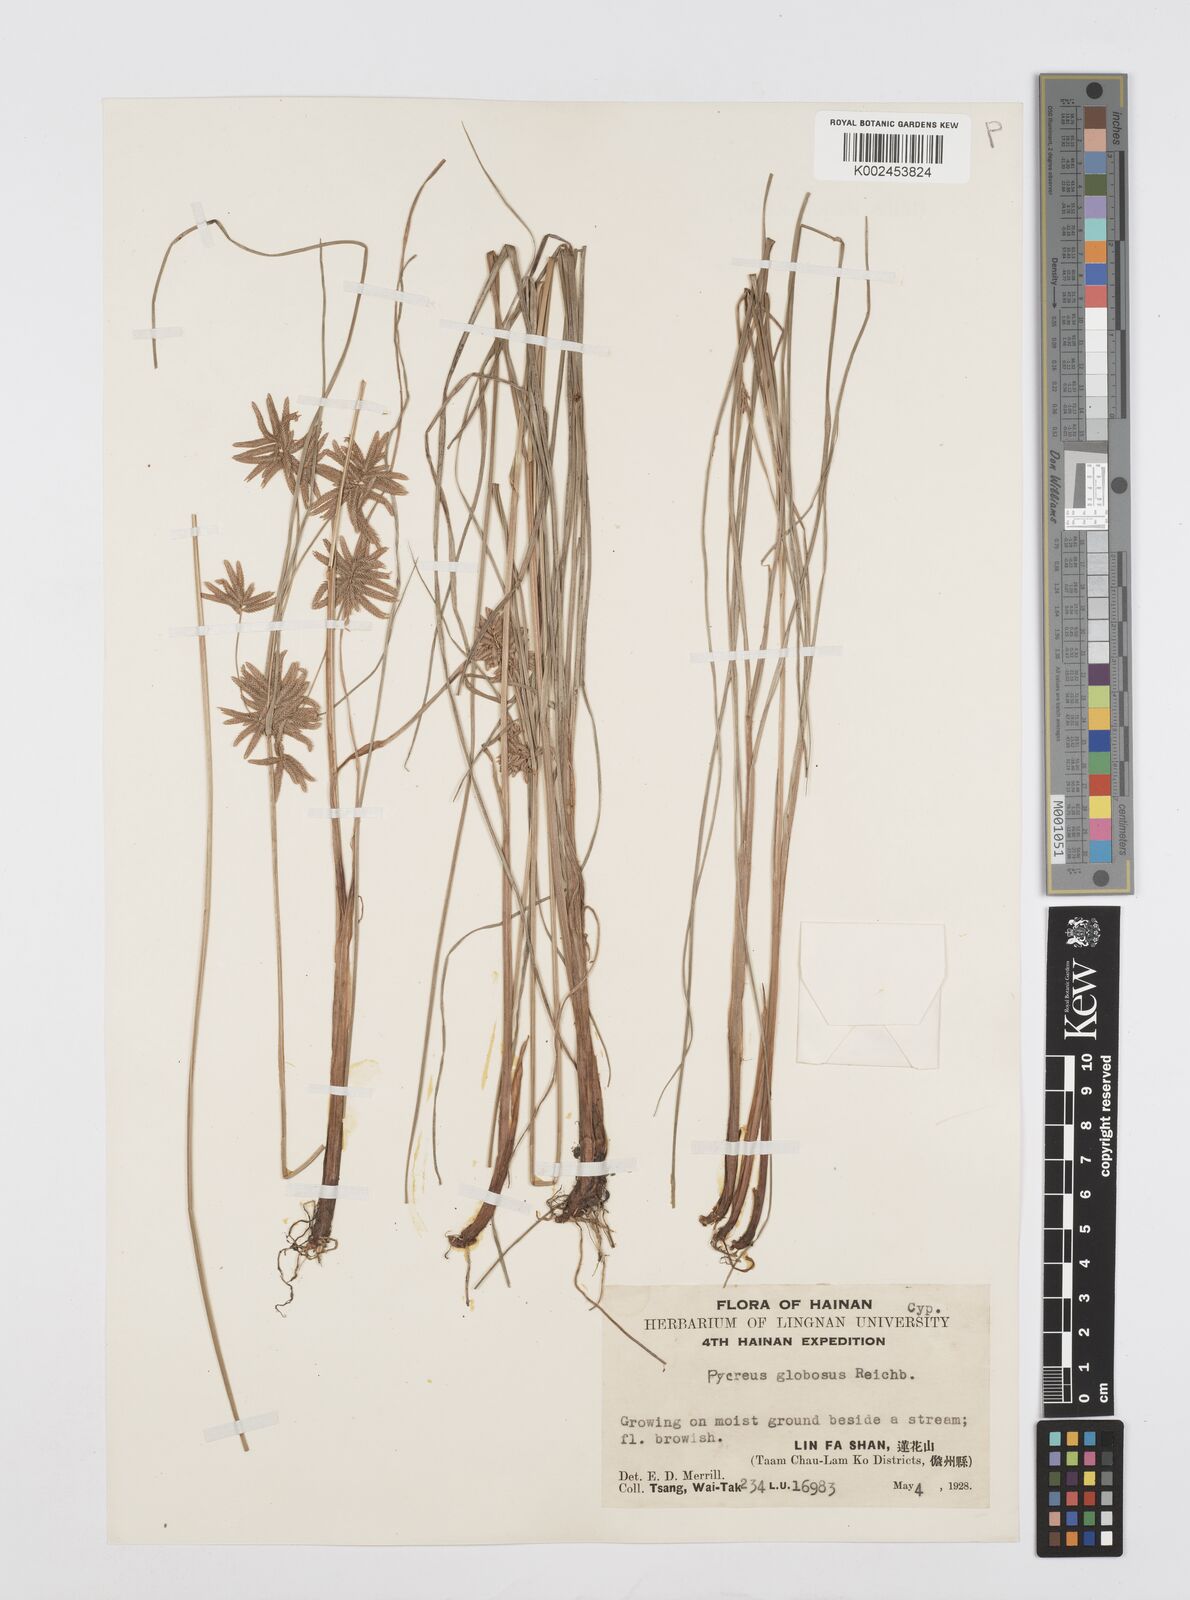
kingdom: Plantae
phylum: Tracheophyta
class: Liliopsida
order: Poales
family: Cyperaceae
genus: Cyperus
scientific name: Cyperus flavidus
